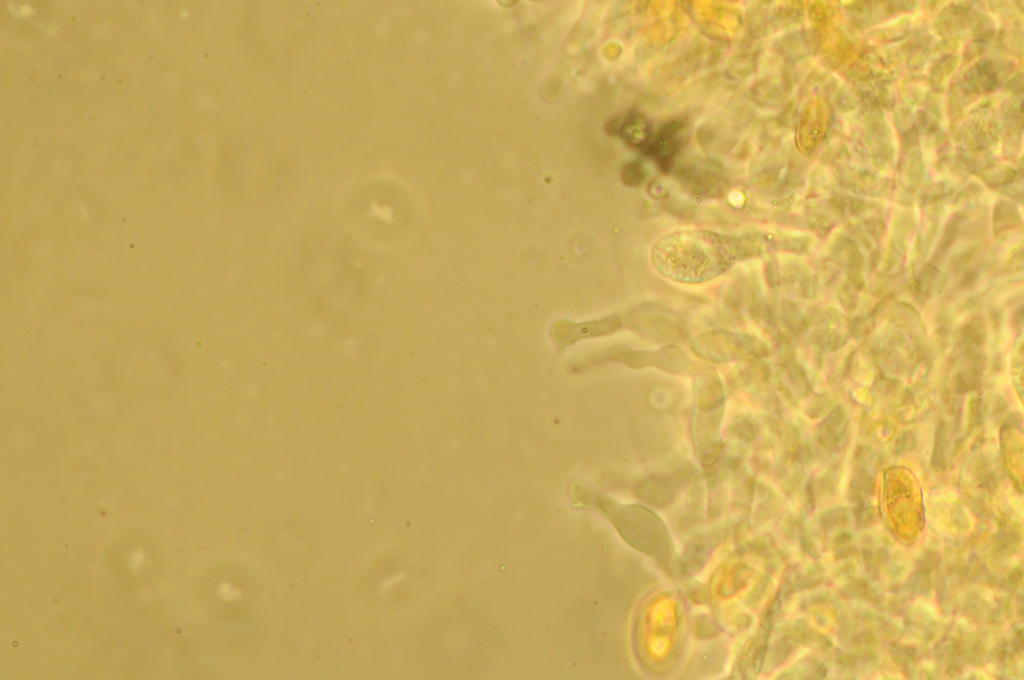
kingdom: Fungi
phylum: Basidiomycota
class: Agaricomycetes
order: Agaricales
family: Hymenogastraceae
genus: Galerina
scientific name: Galerina subclavata
